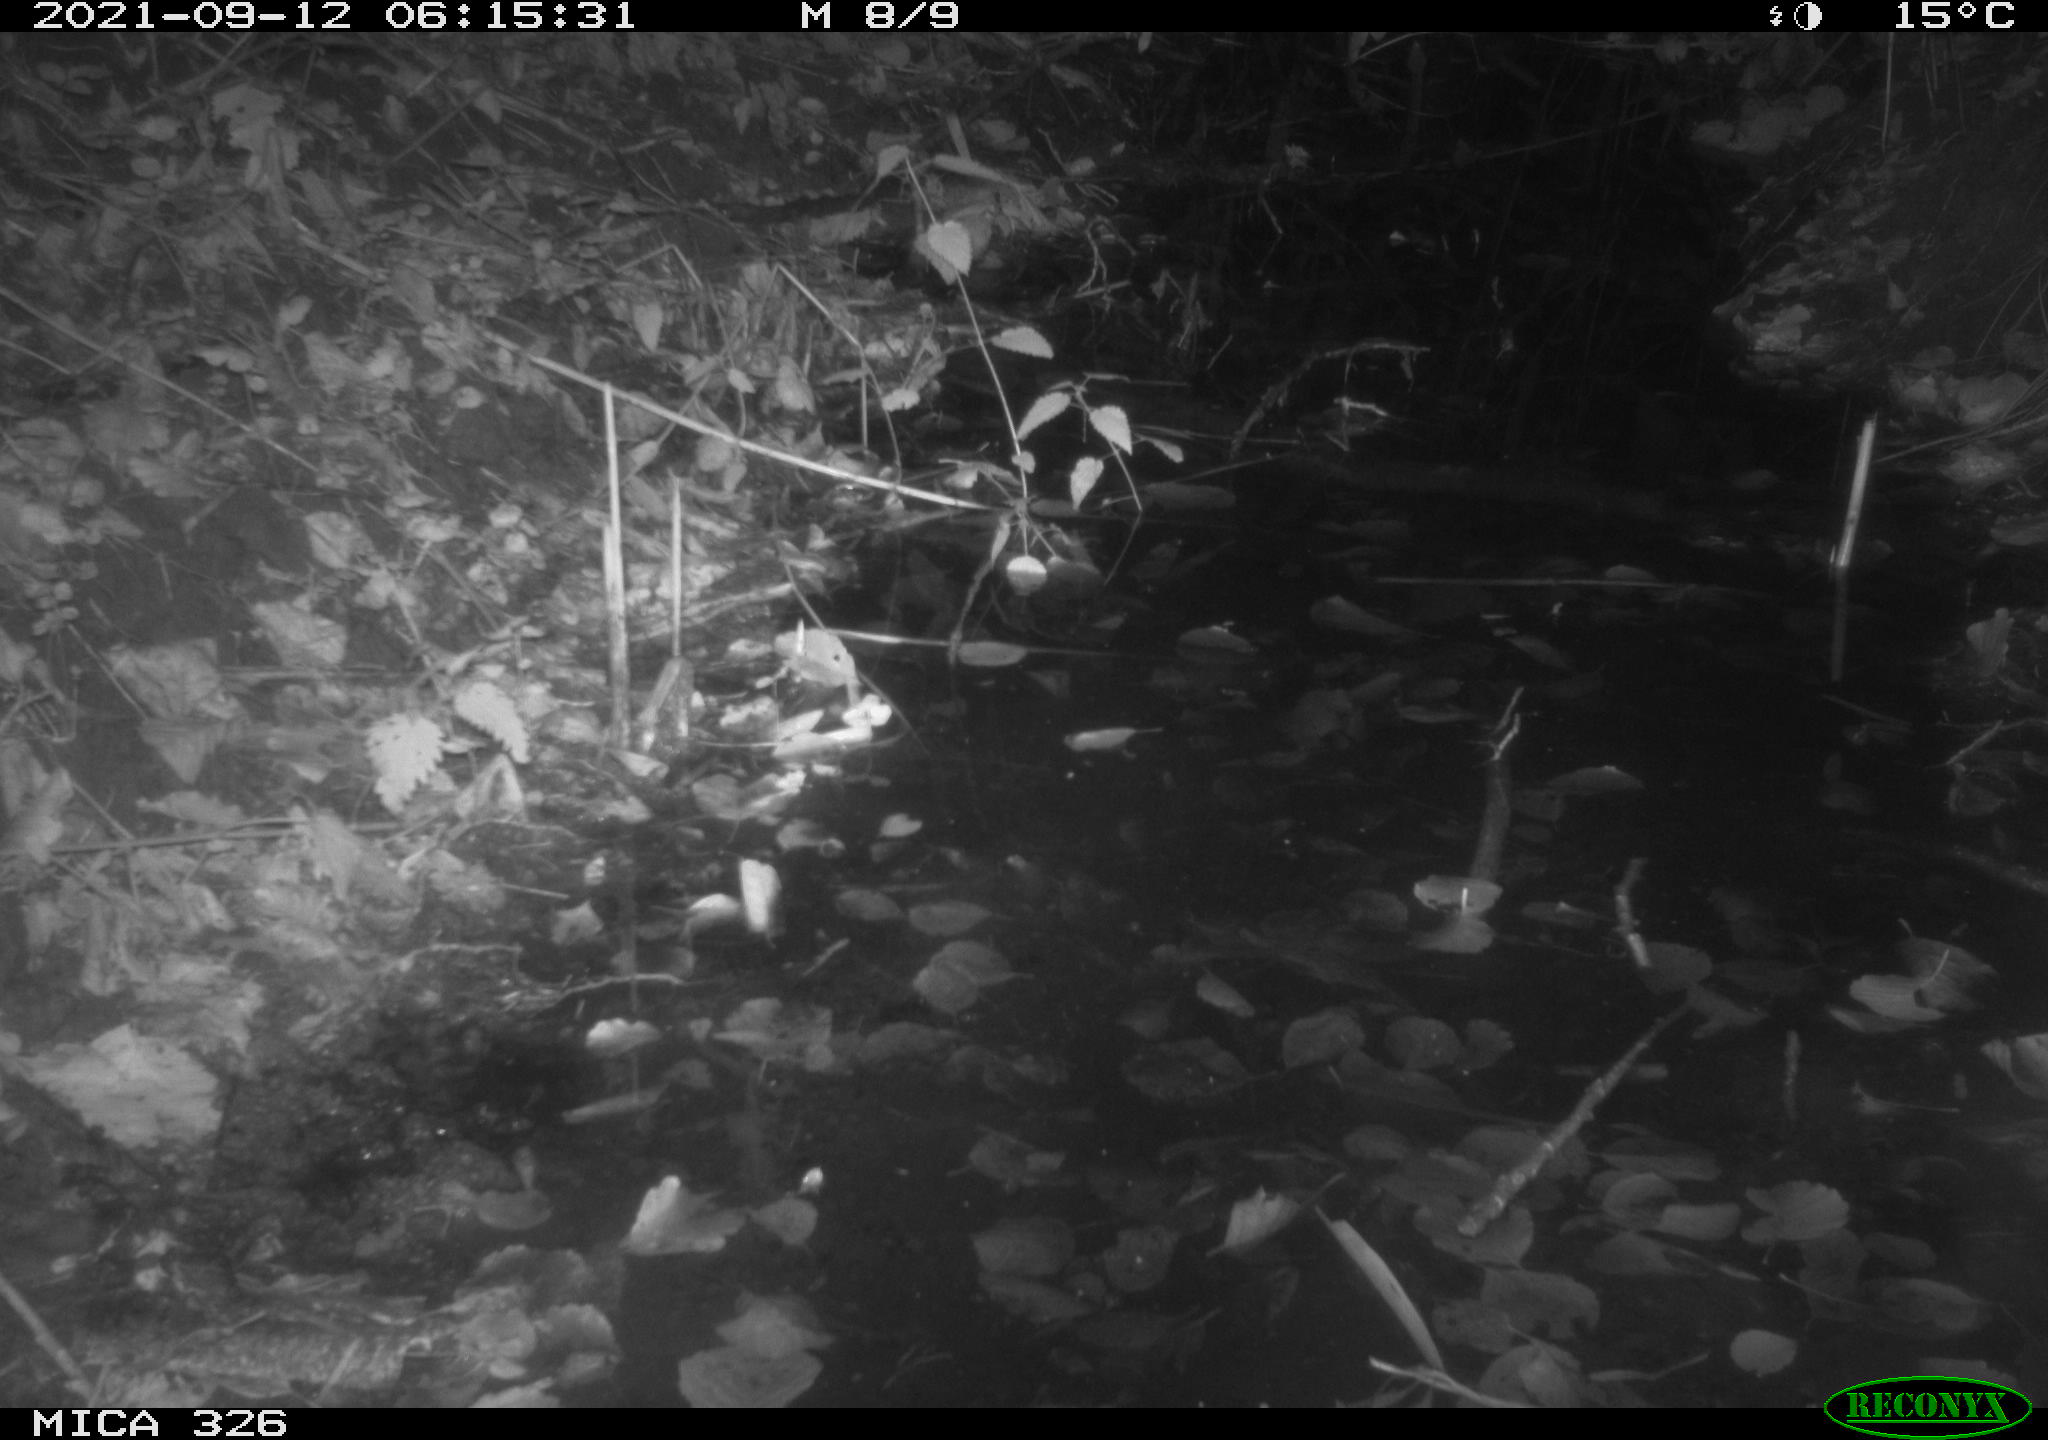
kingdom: Animalia
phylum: Chordata
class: Mammalia
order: Rodentia
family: Muridae
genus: Rattus
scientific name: Rattus norvegicus
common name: Brown rat
